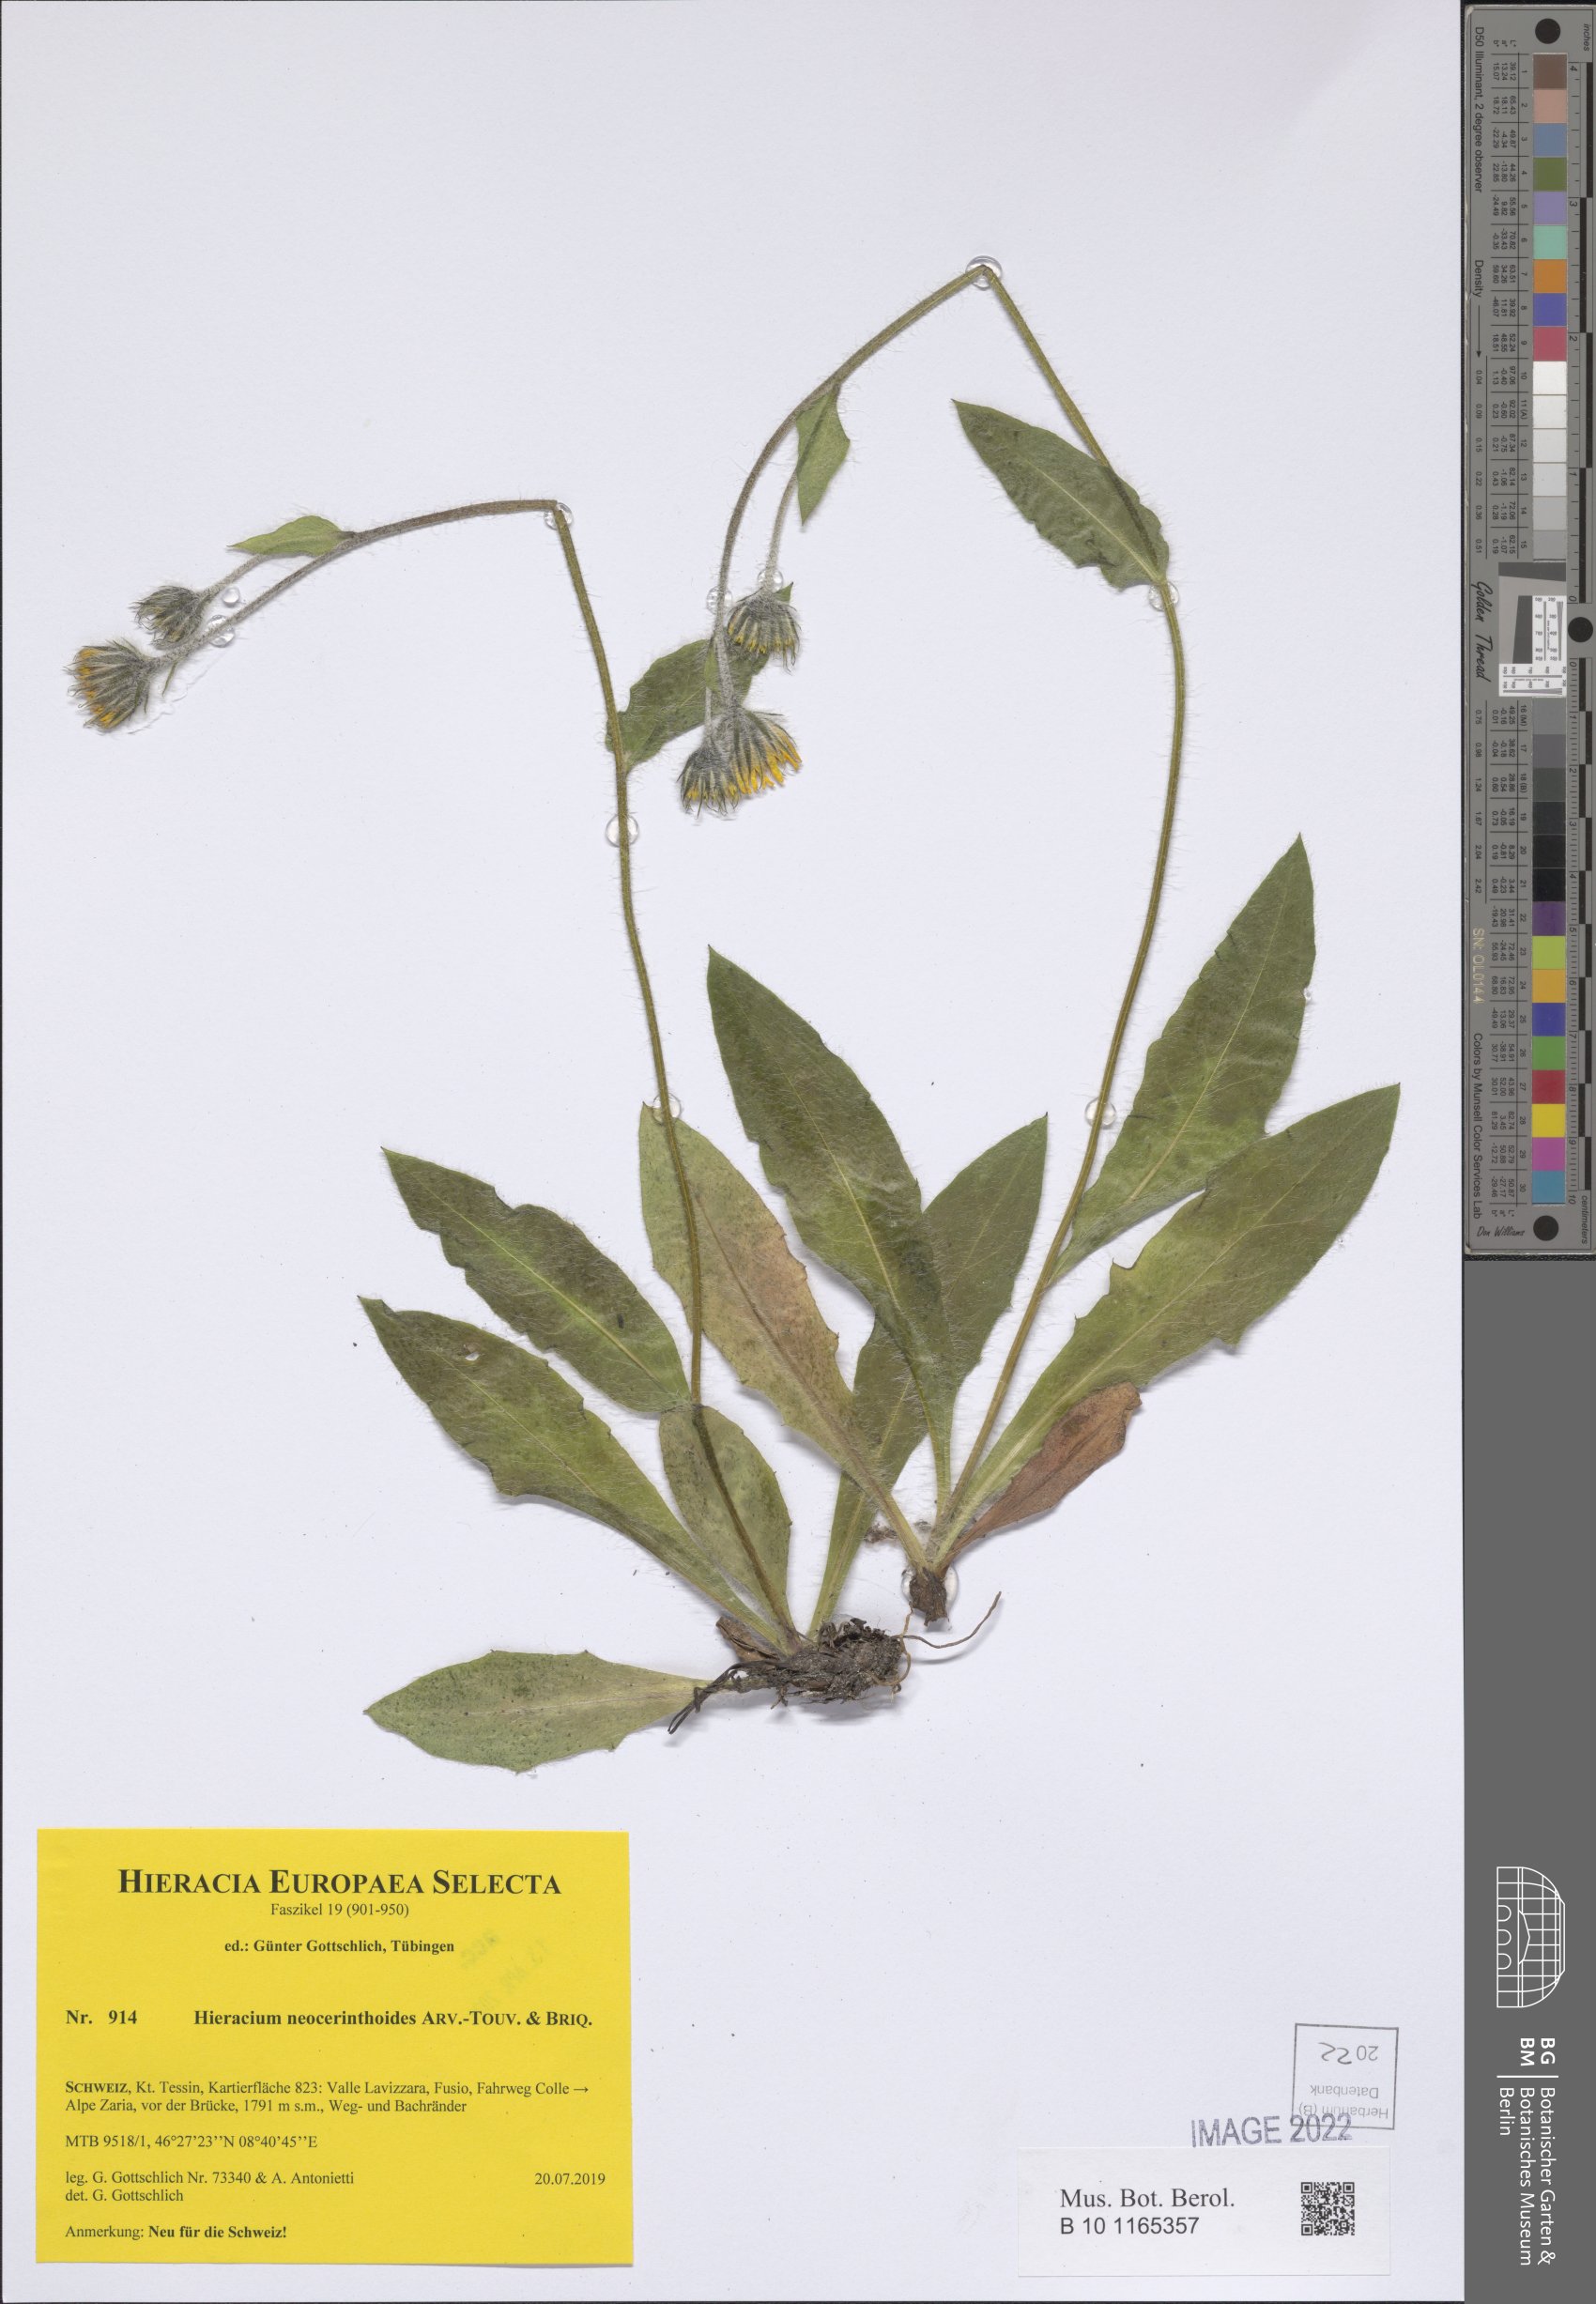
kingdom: Plantae
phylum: Tracheophyta
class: Magnoliopsida
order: Asterales
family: Asteraceae
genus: Hieracium
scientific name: Hieracium neocerinthoides
